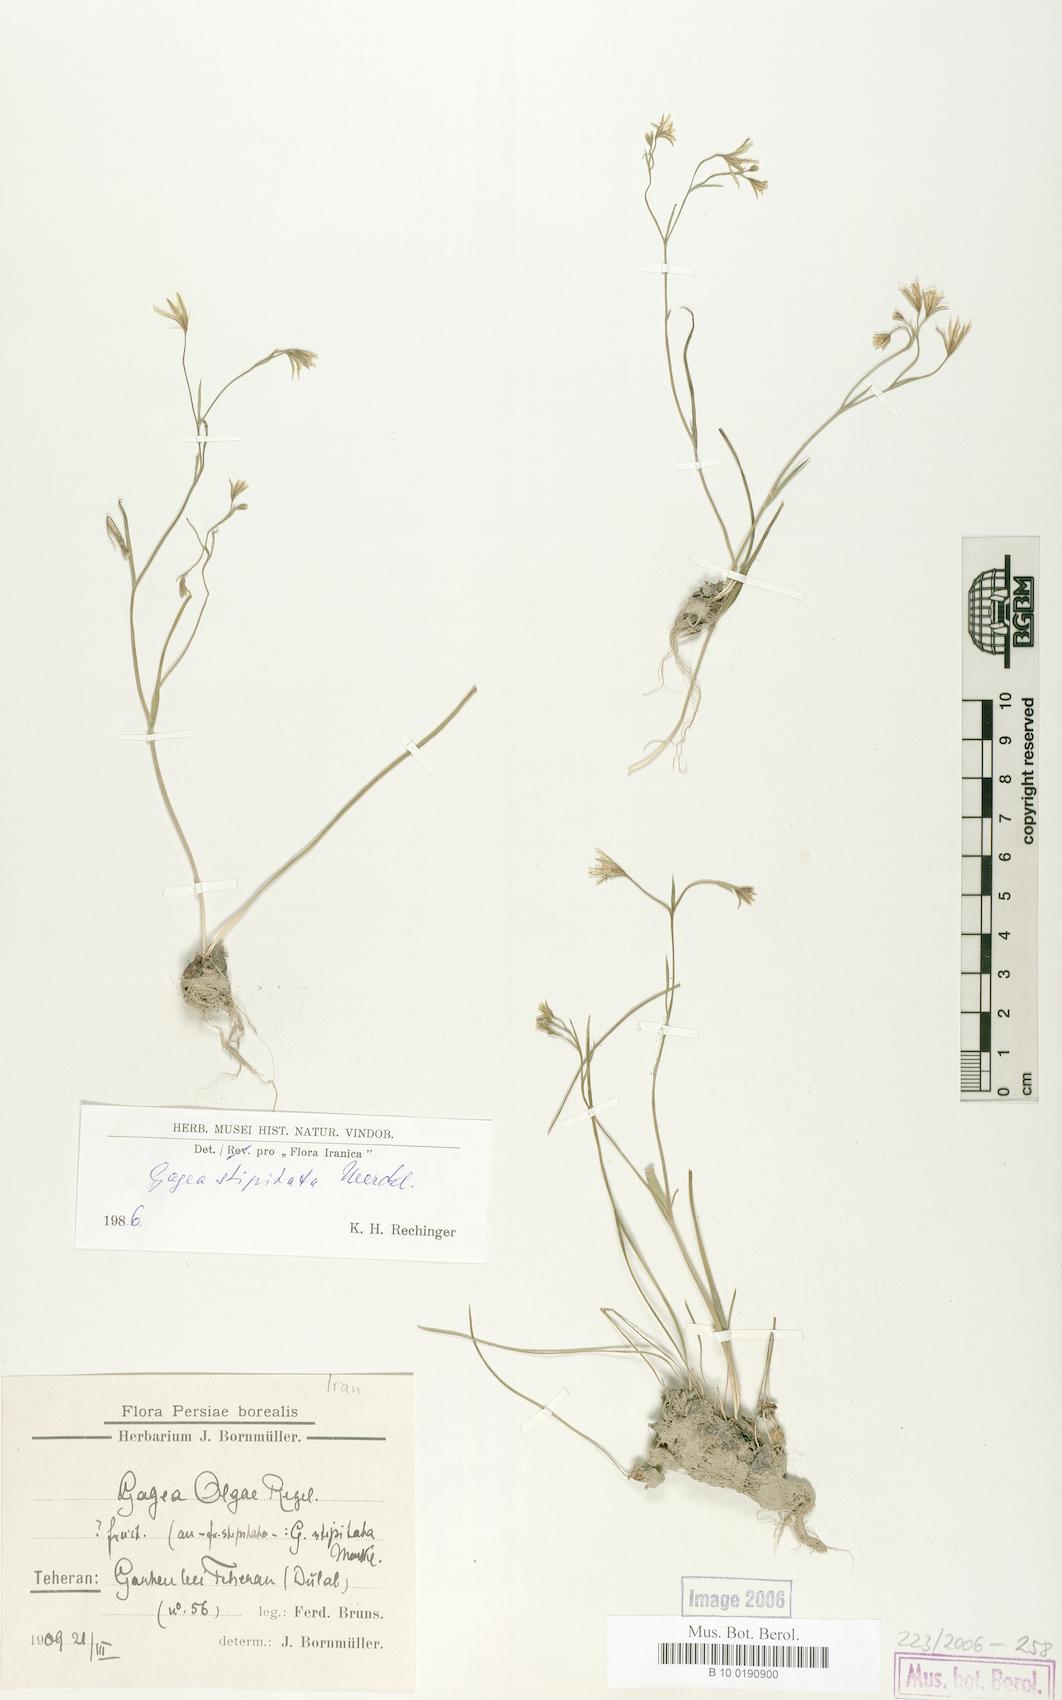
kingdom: Plantae
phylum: Tracheophyta
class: Liliopsida
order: Liliales
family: Liliaceae
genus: Gagea
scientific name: Gagea kunawurensis
